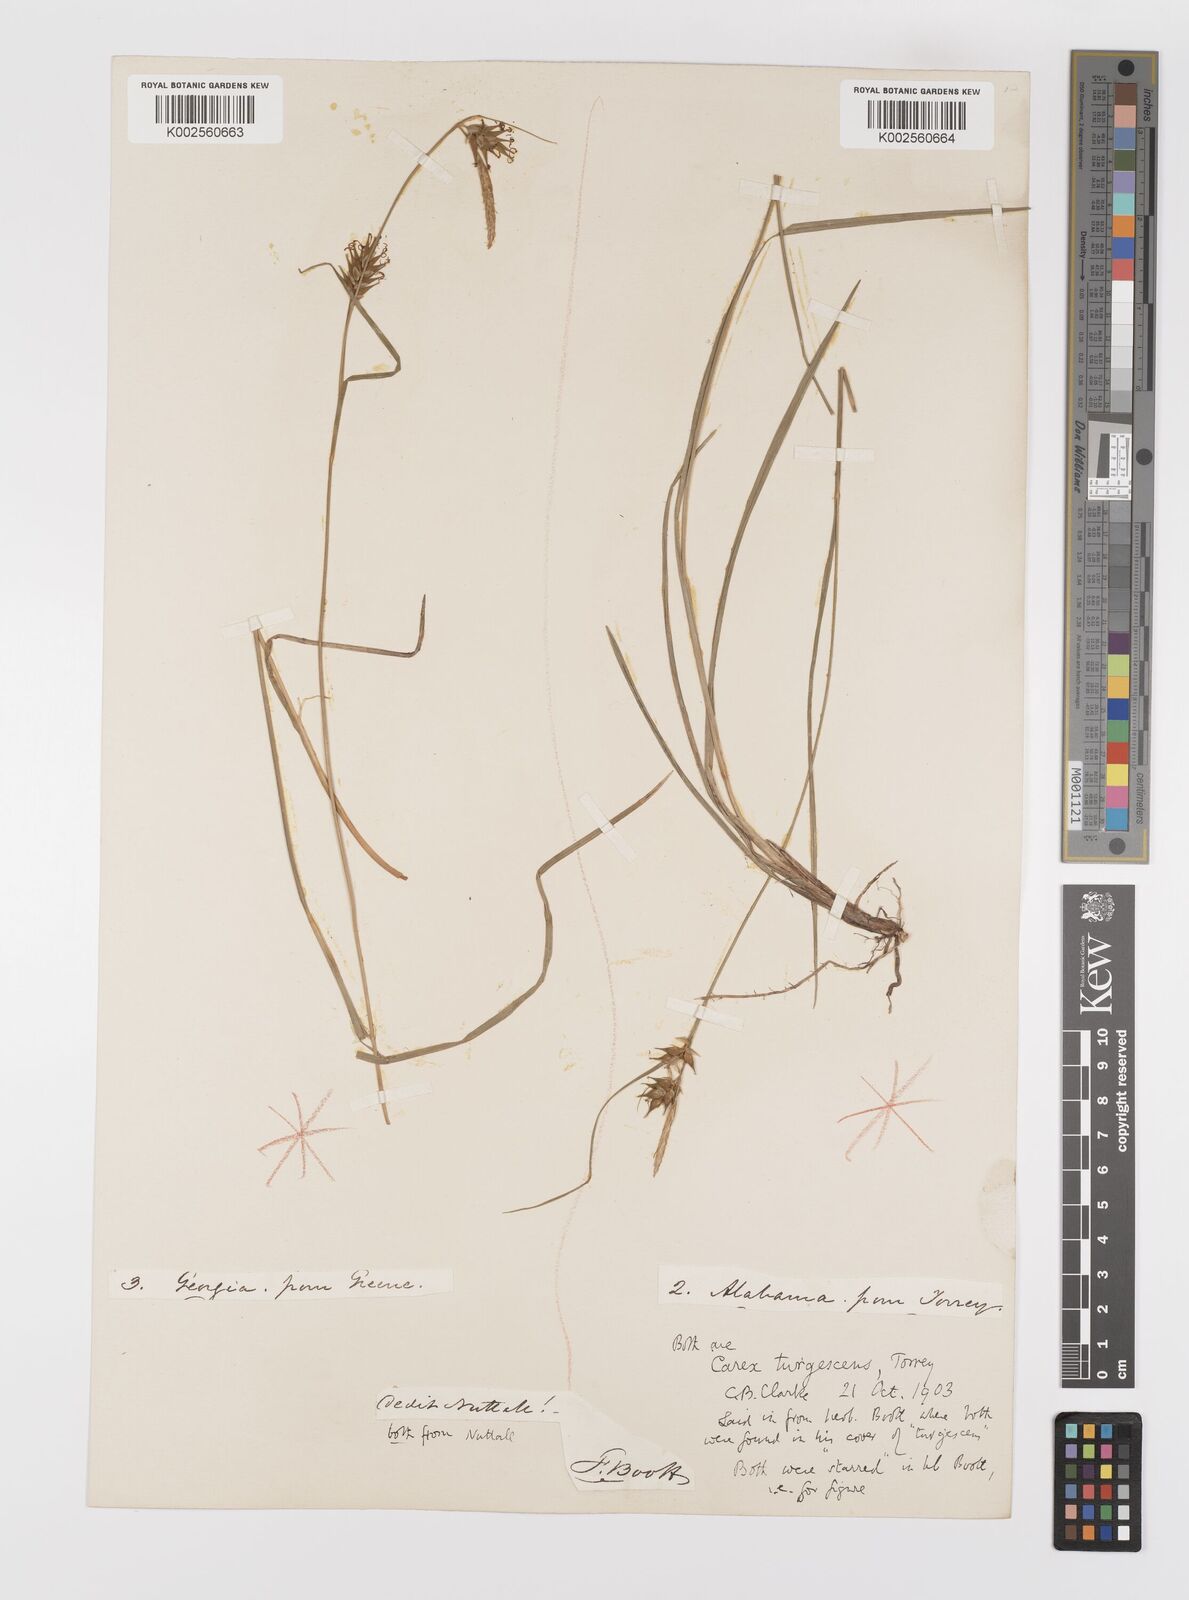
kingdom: Plantae
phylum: Tracheophyta
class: Liliopsida
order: Poales
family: Cyperaceae
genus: Carex
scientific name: Carex turgescens
